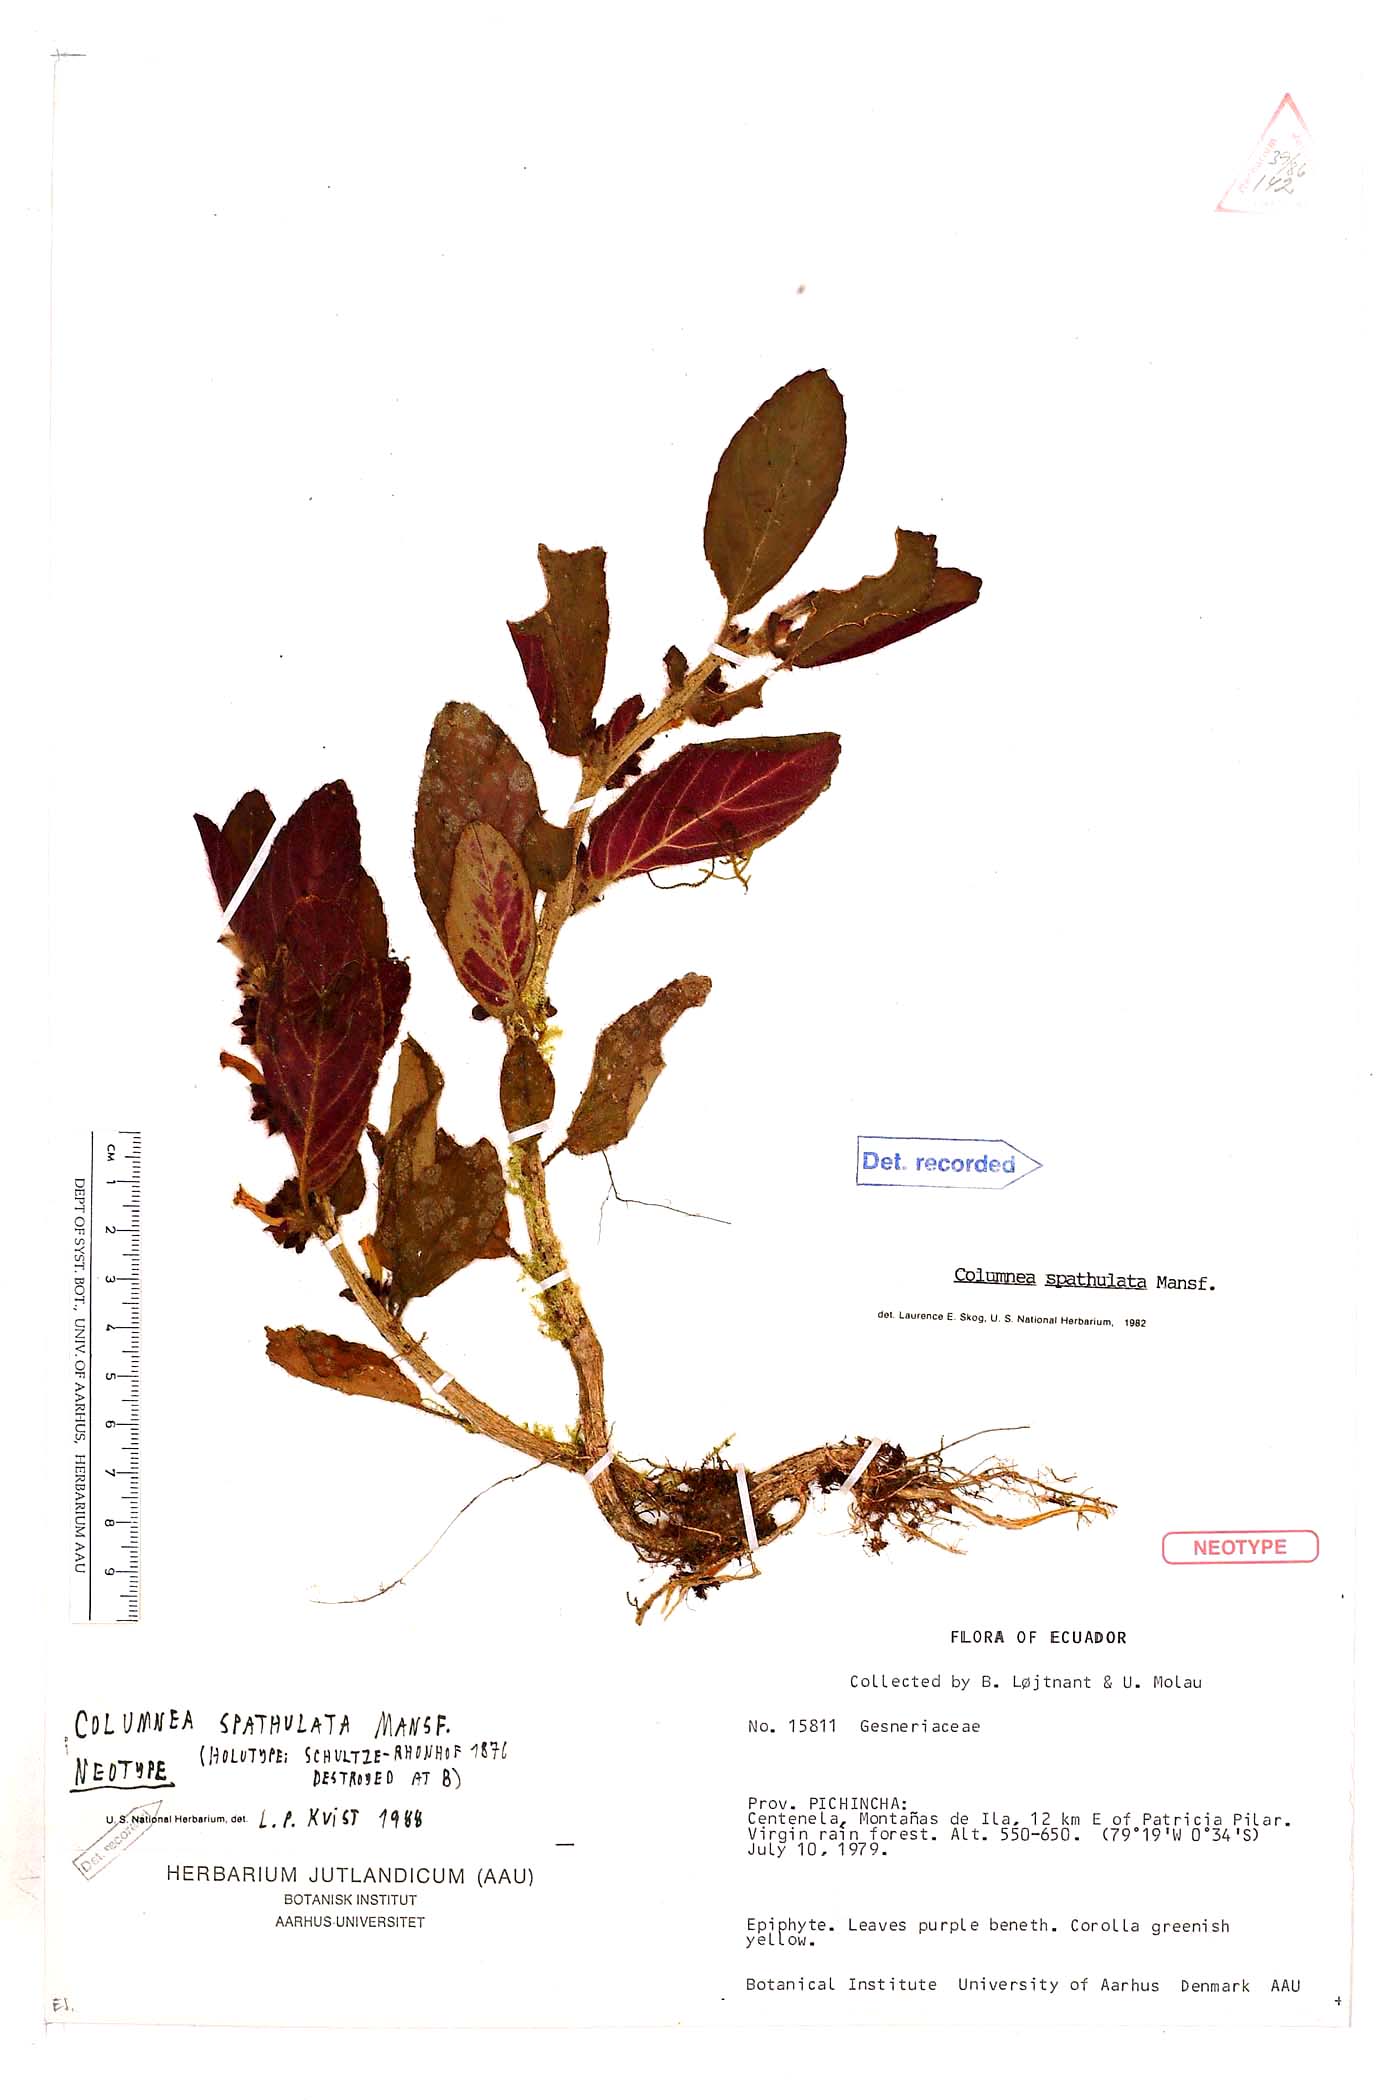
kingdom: Plantae
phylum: Tracheophyta
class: Magnoliopsida
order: Lamiales
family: Gesneriaceae
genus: Columnea
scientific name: Columnea spathulata
